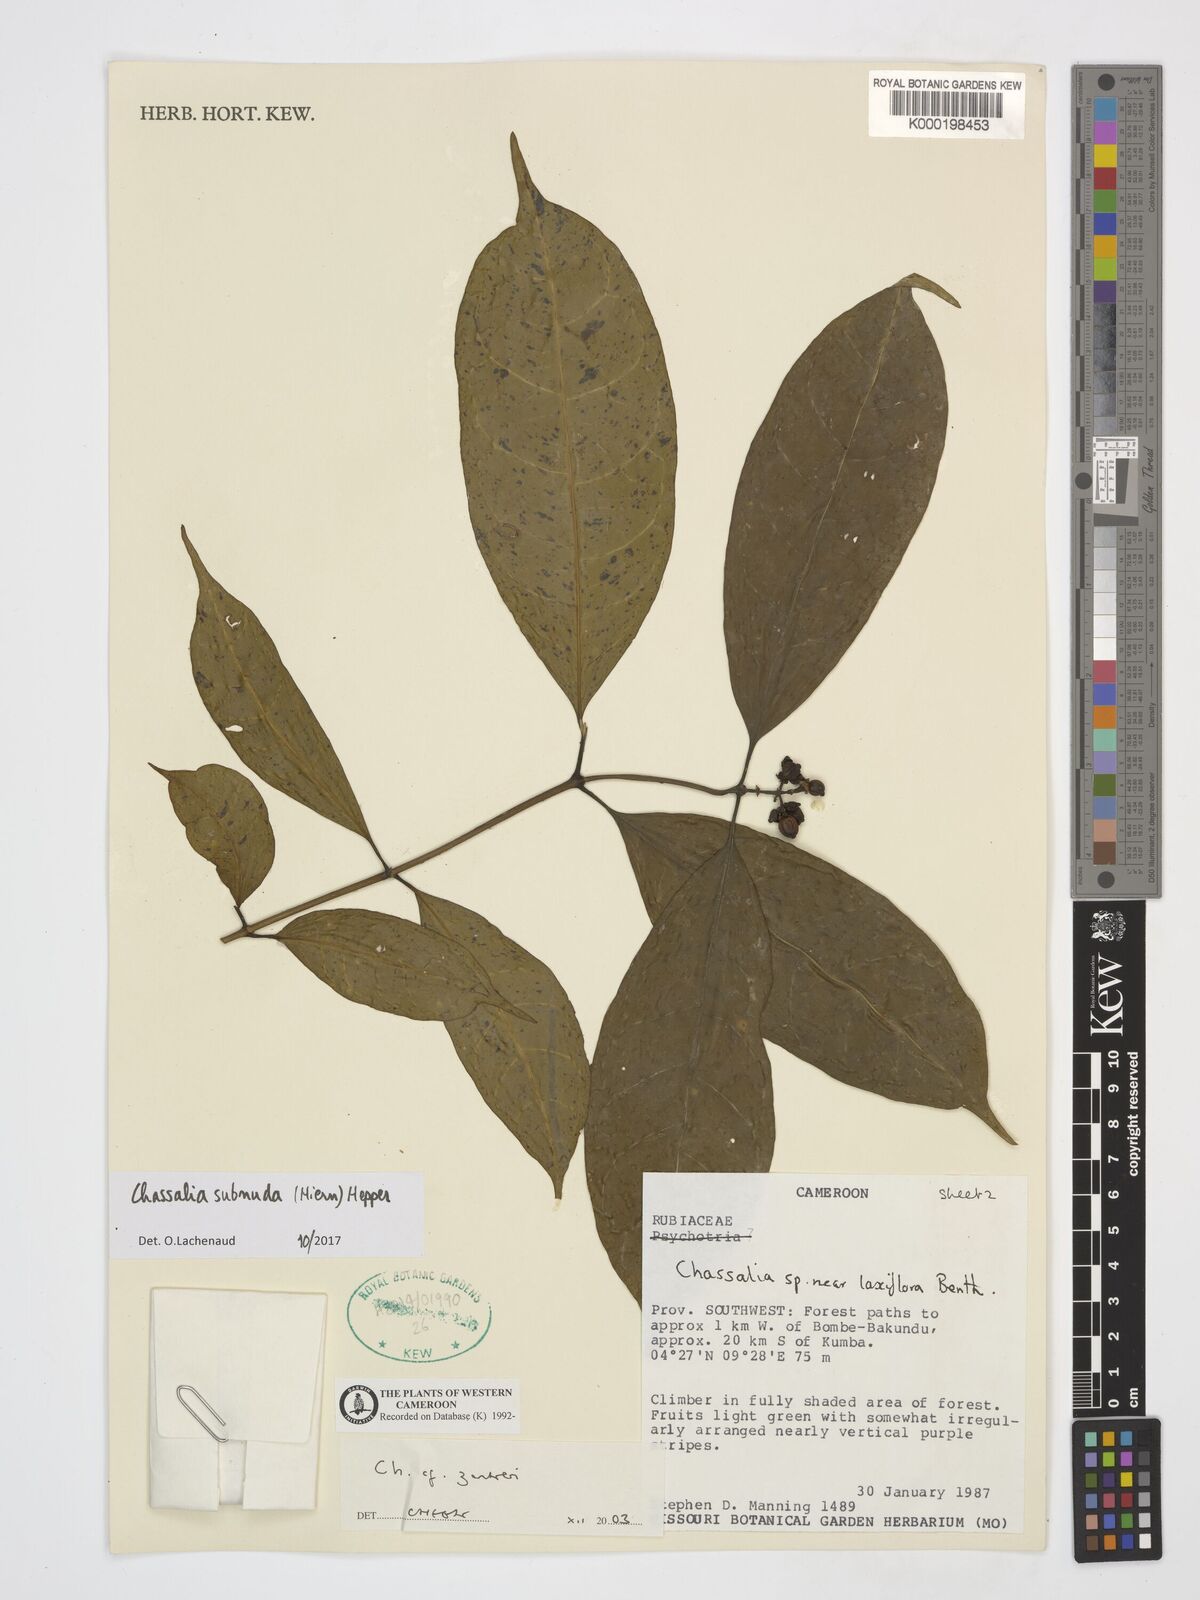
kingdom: Plantae
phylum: Tracheophyta
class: Magnoliopsida
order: Gentianales
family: Rubiaceae
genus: Chassalia
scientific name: Chassalia zenkeri
